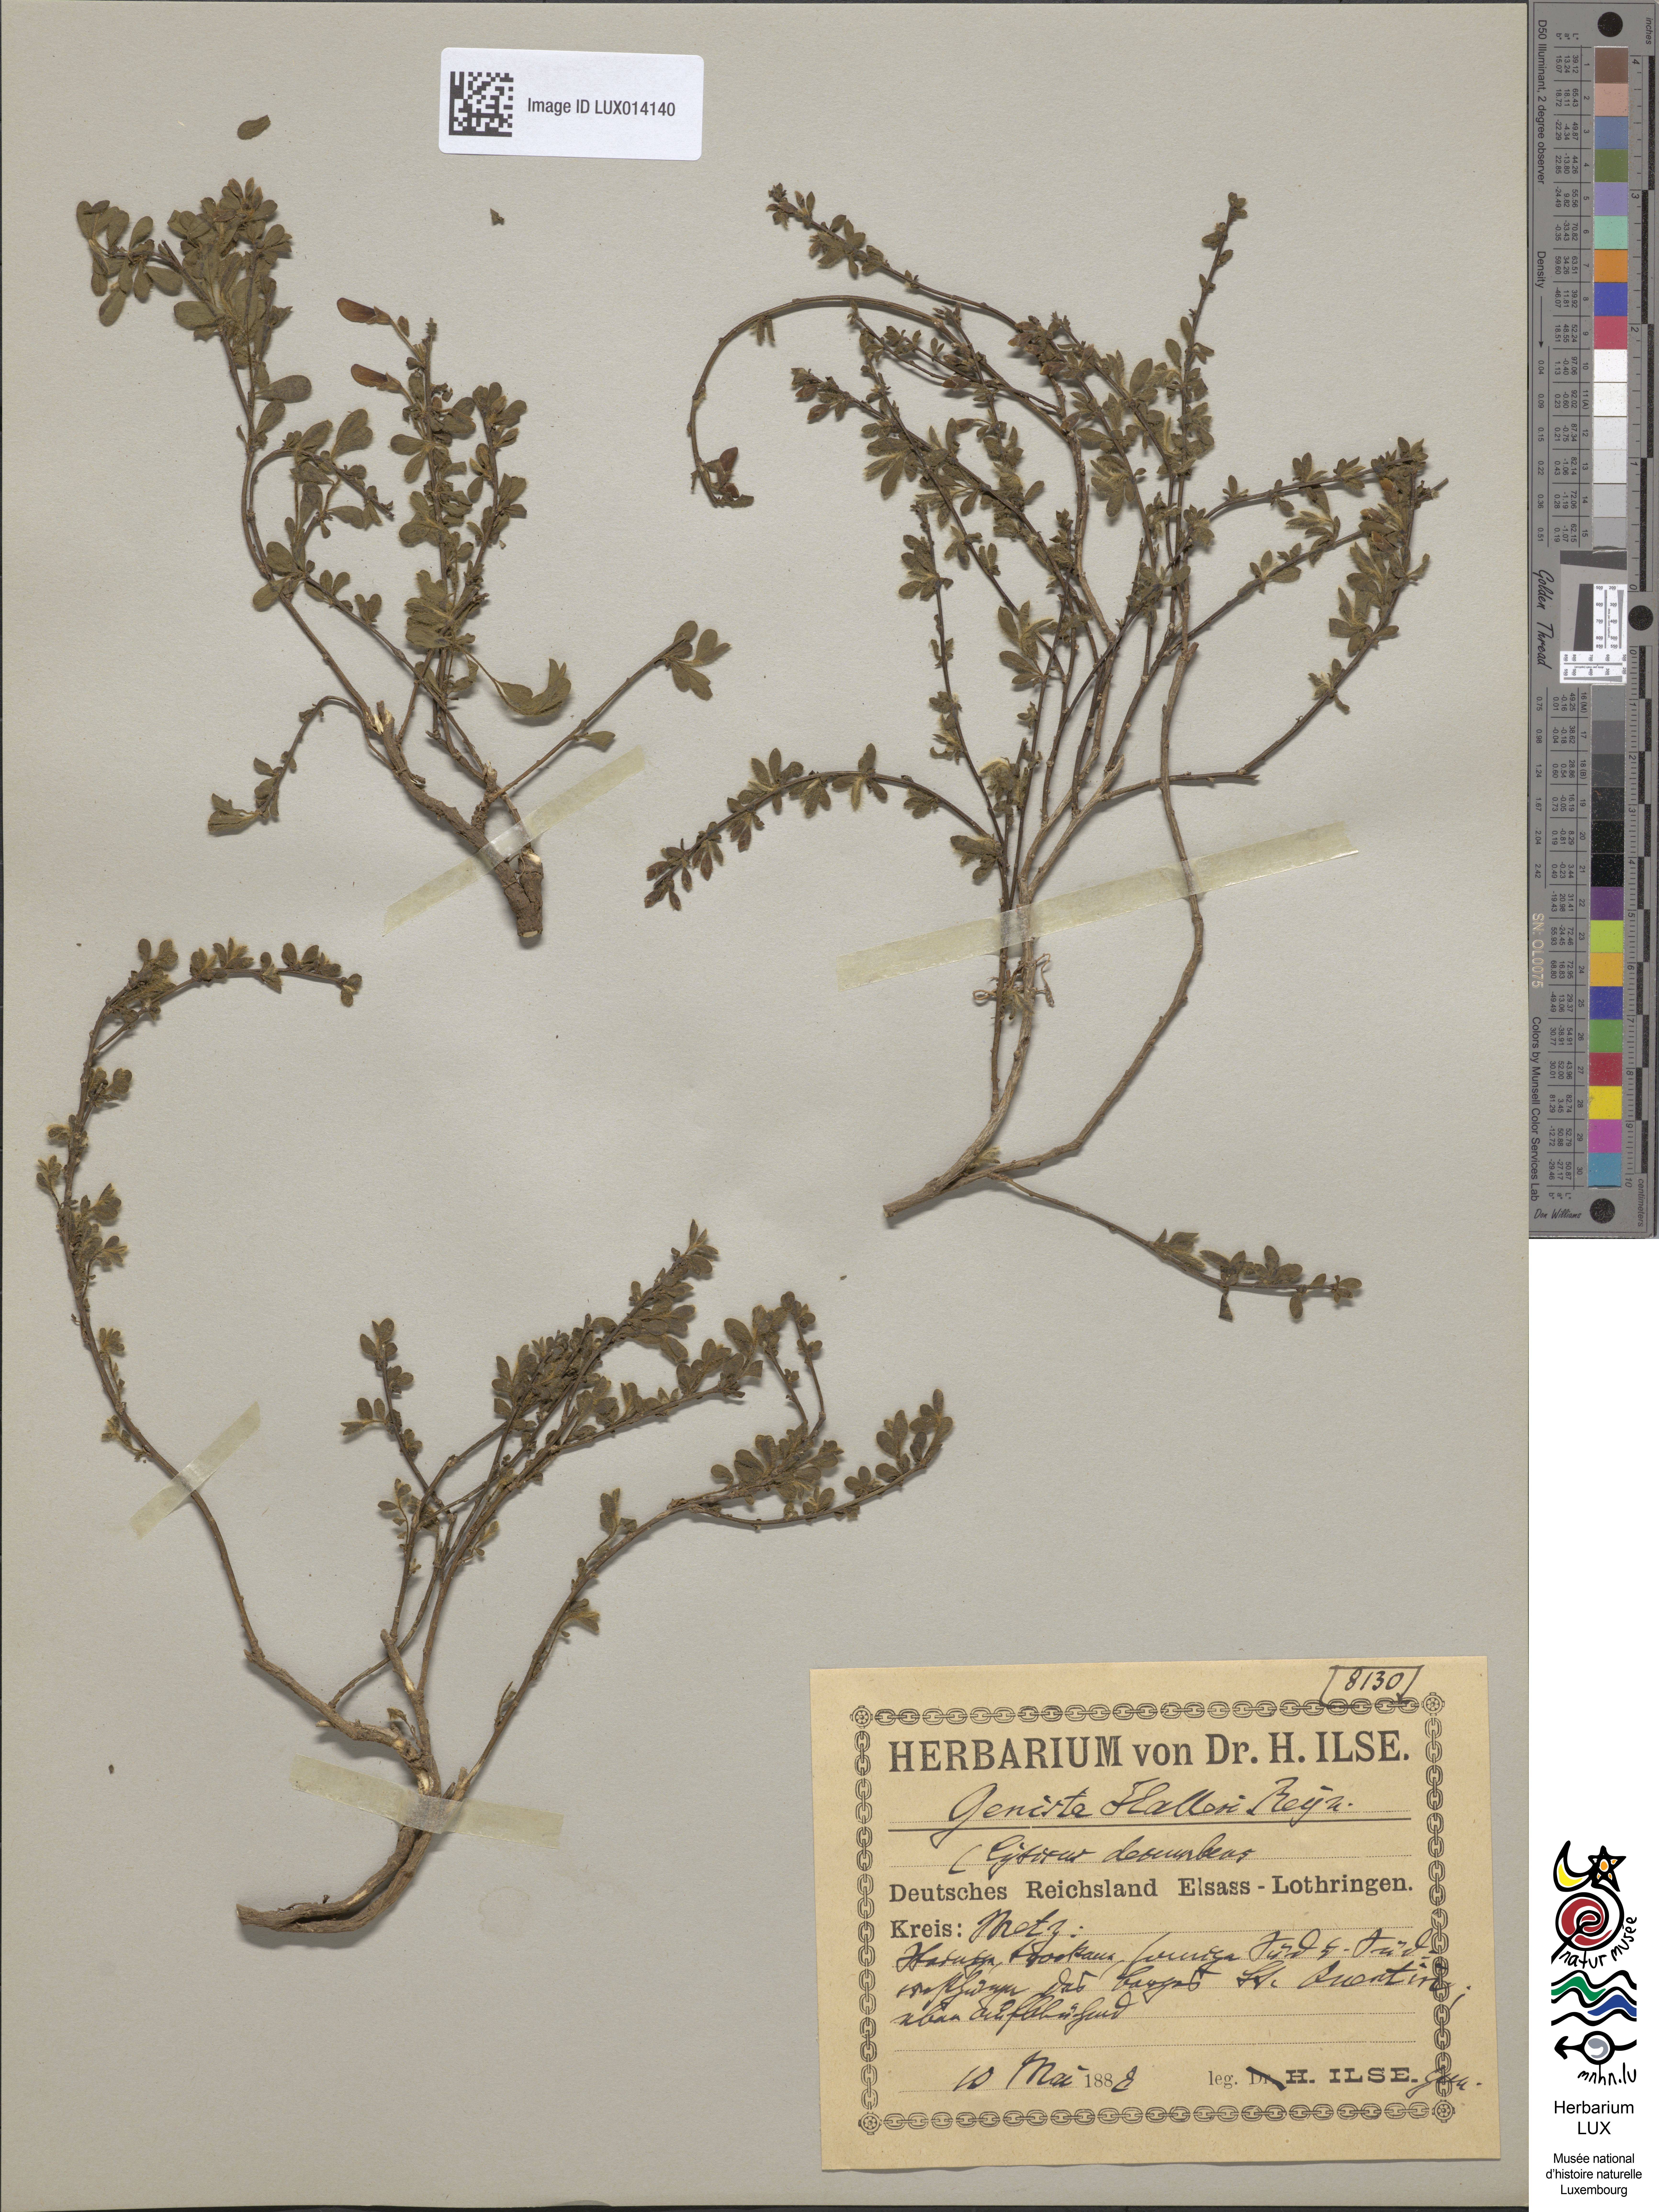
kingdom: Plantae
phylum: Tracheophyta
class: Magnoliopsida
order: Fabales
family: Fabaceae
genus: Cytisus
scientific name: Cytisus decumbens
